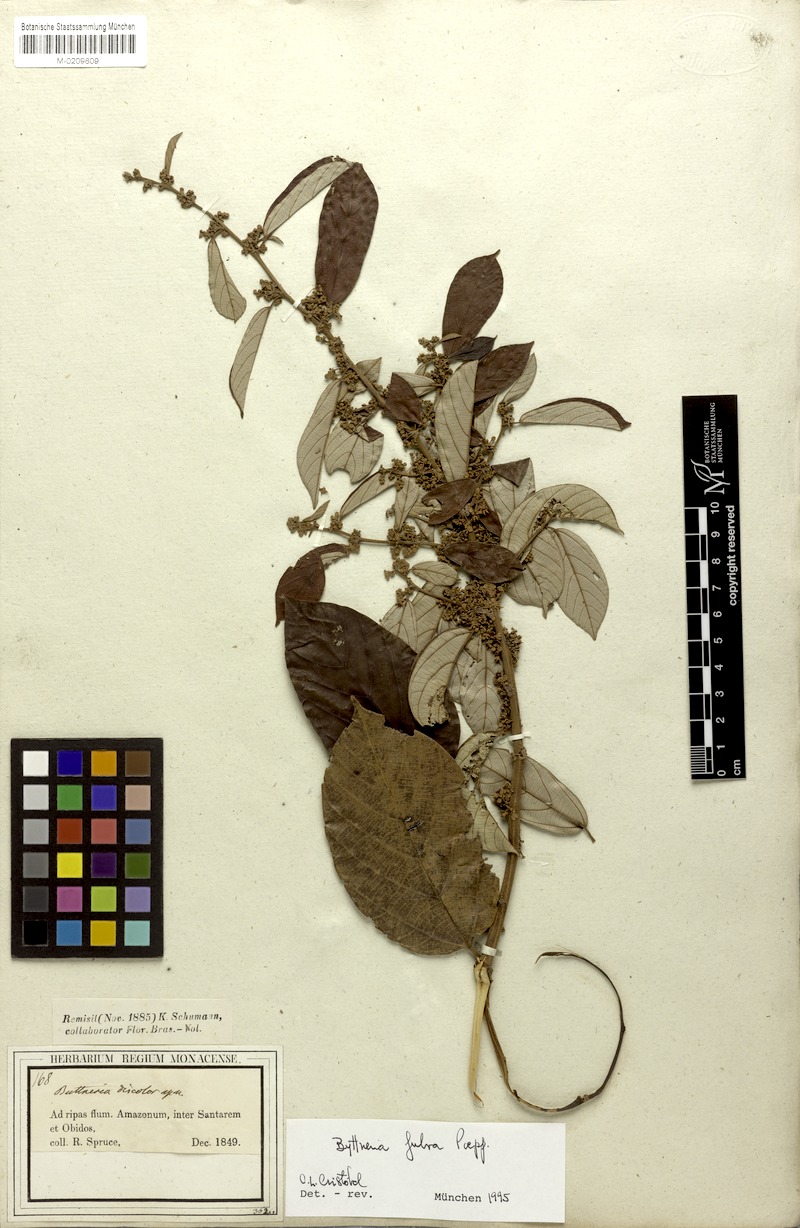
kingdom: Plantae
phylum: Tracheophyta
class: Magnoliopsida
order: Malvales
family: Malvaceae
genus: Byttneria
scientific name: Byttneria fulva
